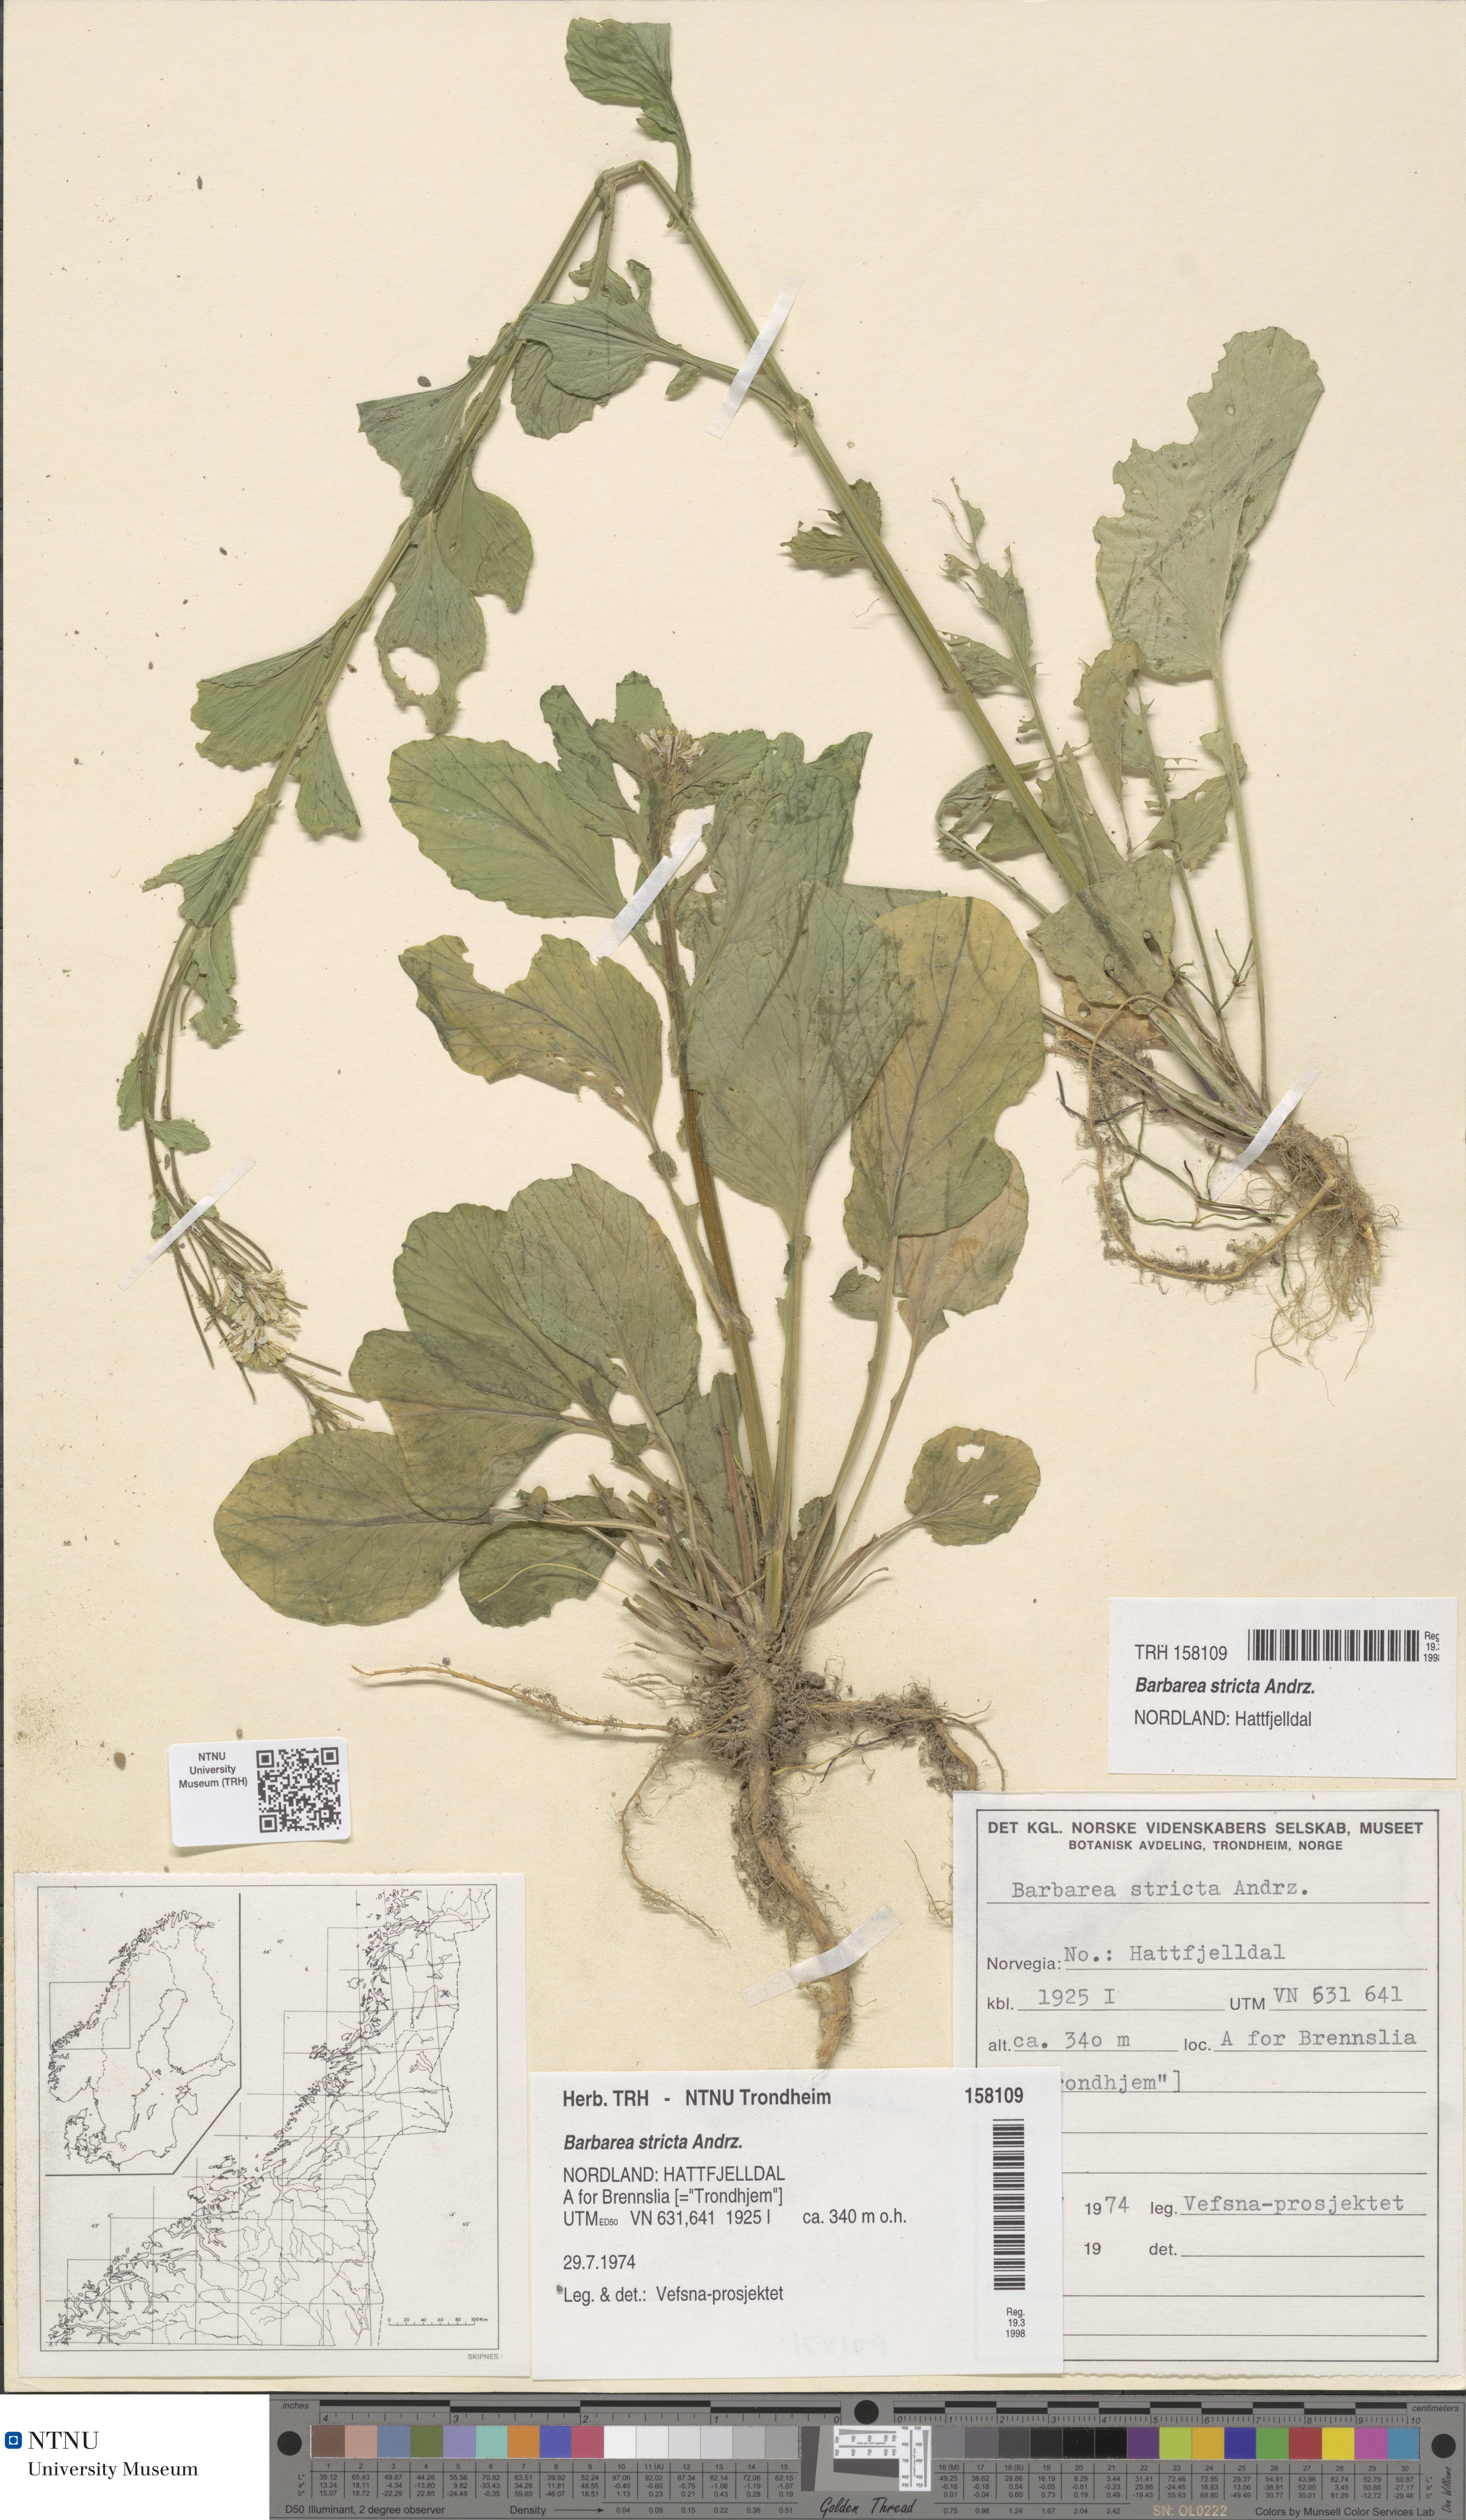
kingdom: Plantae
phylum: Tracheophyta
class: Magnoliopsida
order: Brassicales
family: Brassicaceae
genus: Barbarea
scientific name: Barbarea stricta
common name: Small-flowered winter-cress
